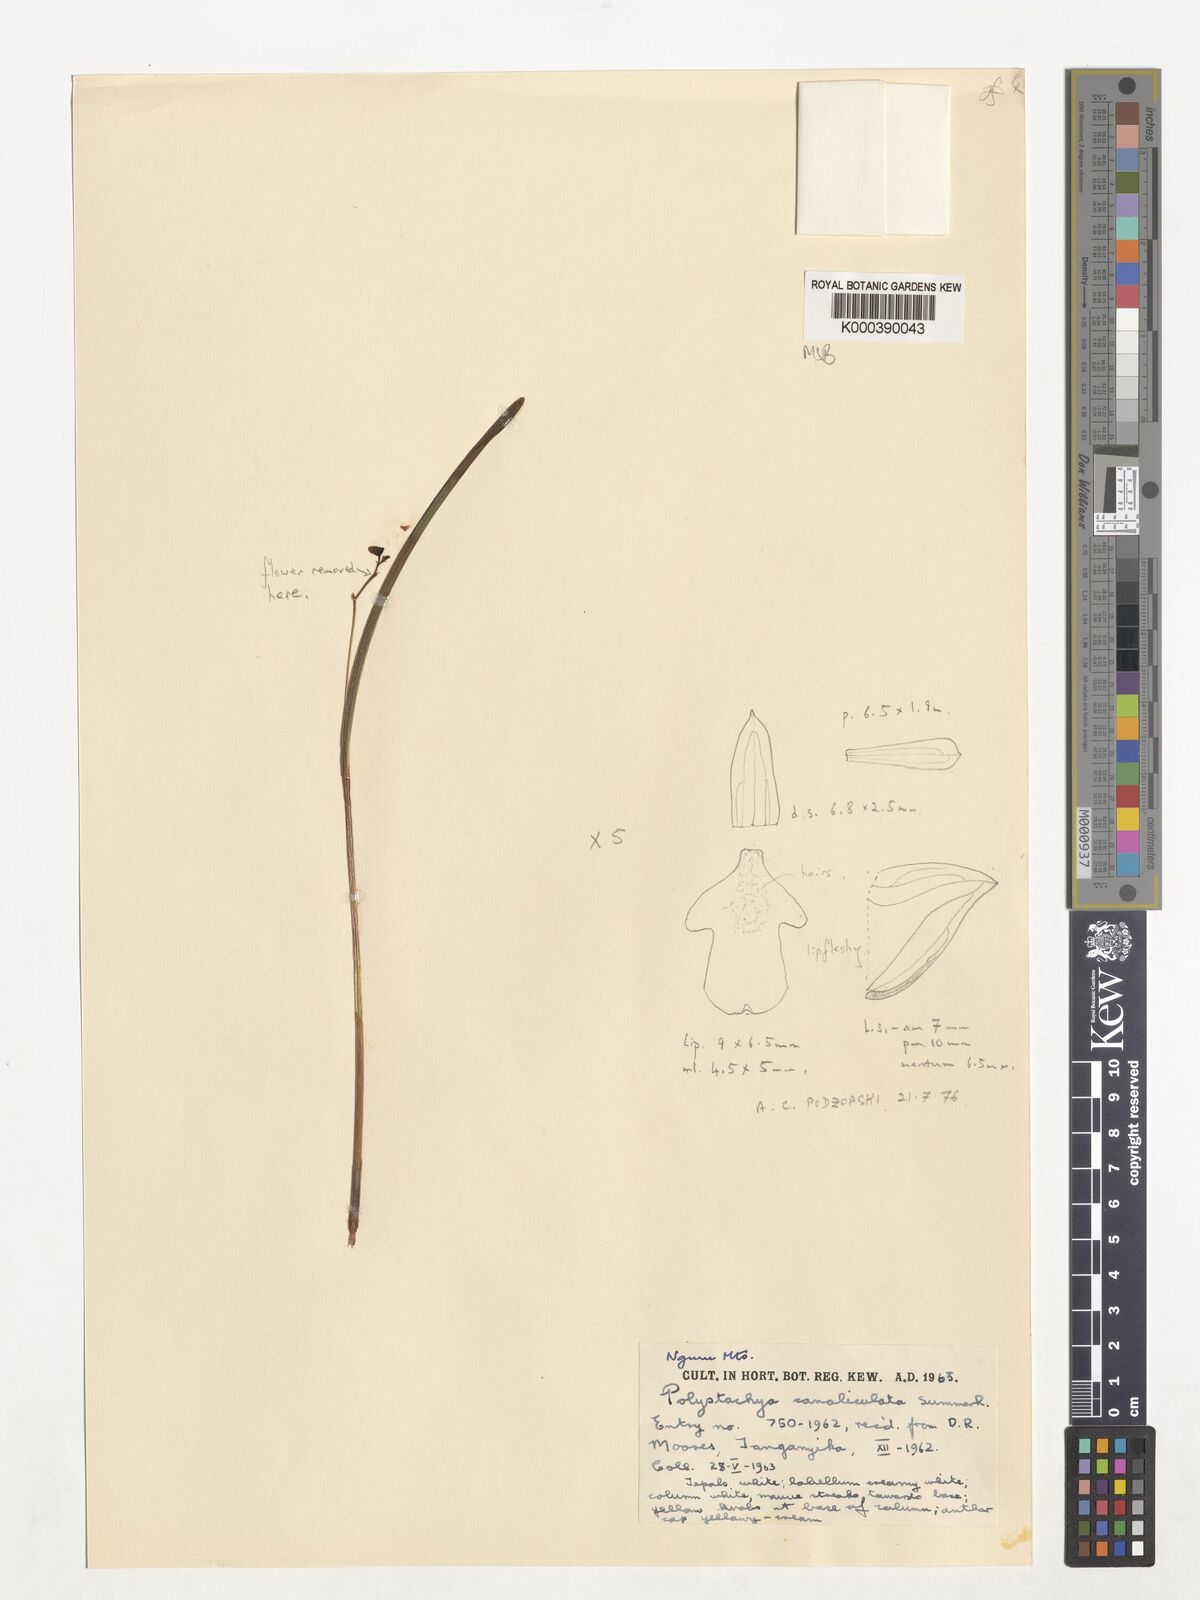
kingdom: Plantae
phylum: Tracheophyta
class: Liliopsida
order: Asparagales
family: Orchidaceae
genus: Polystachya
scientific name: Polystachya canaliculata
